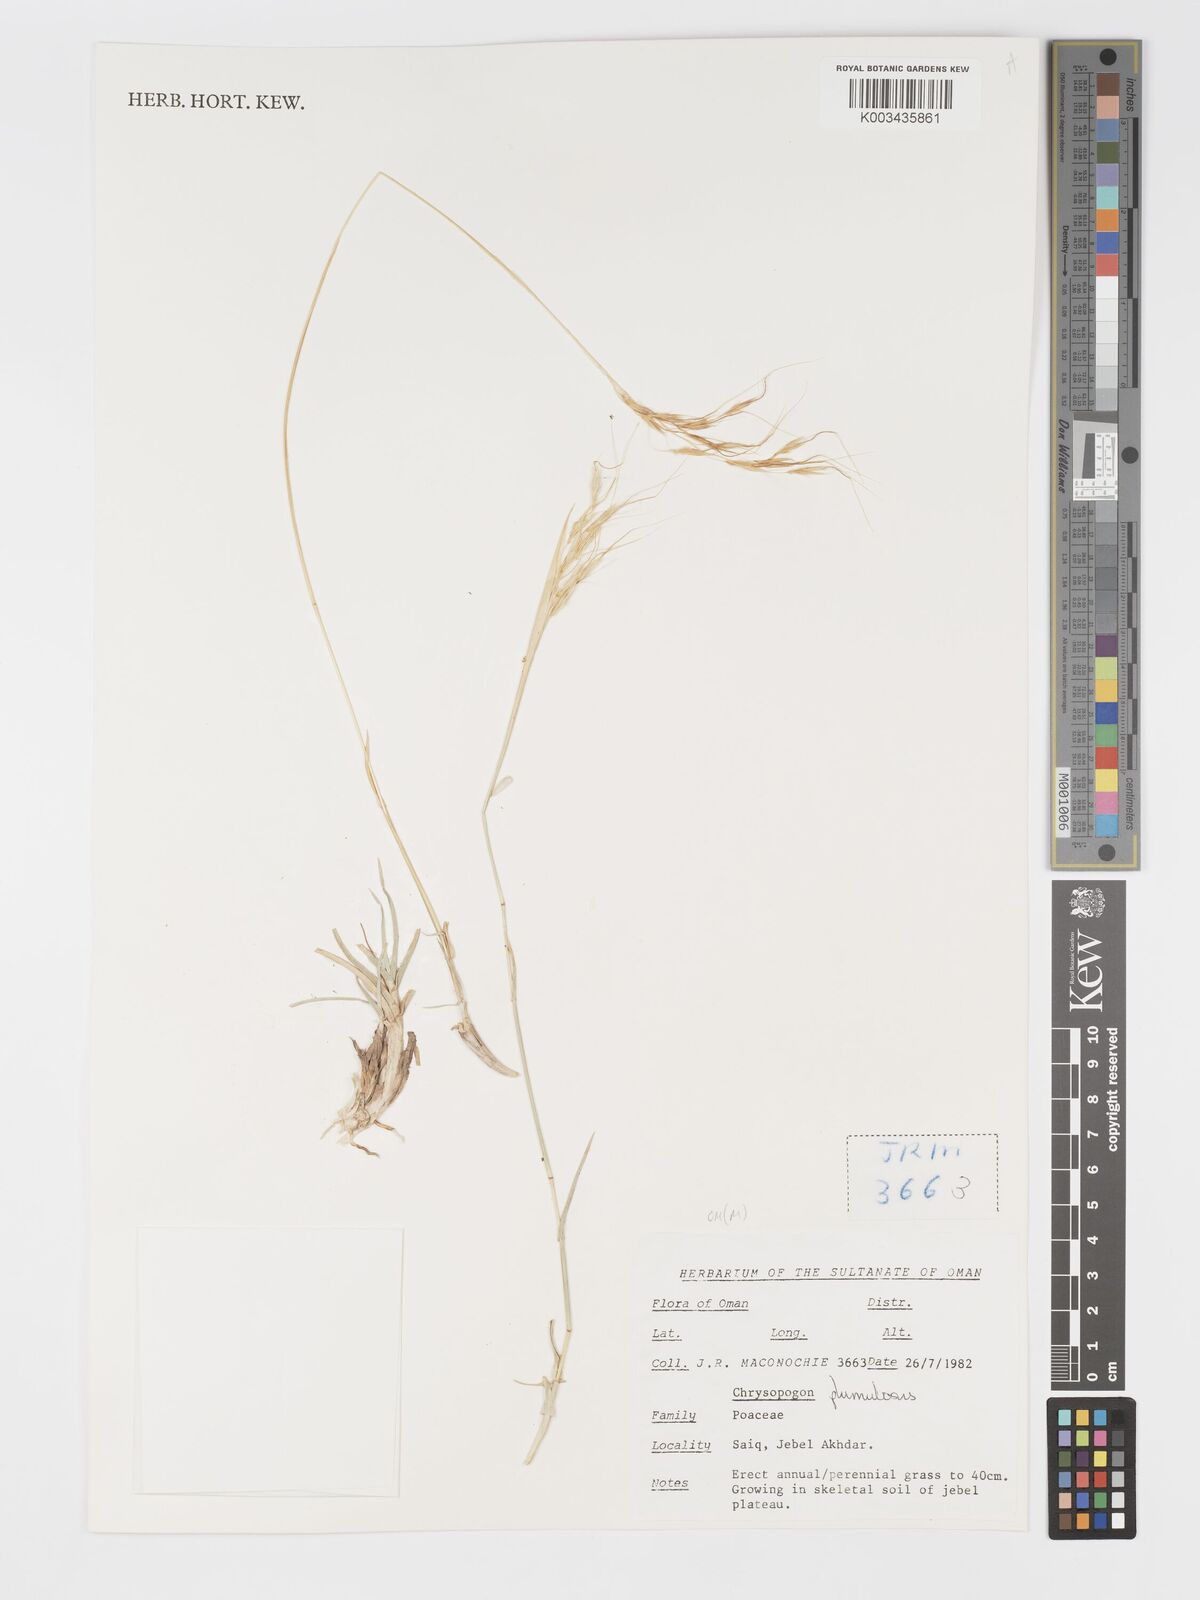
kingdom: Plantae
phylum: Tracheophyta
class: Liliopsida
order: Poales
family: Poaceae
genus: Chrysopogon
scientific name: Chrysopogon plumulosus
